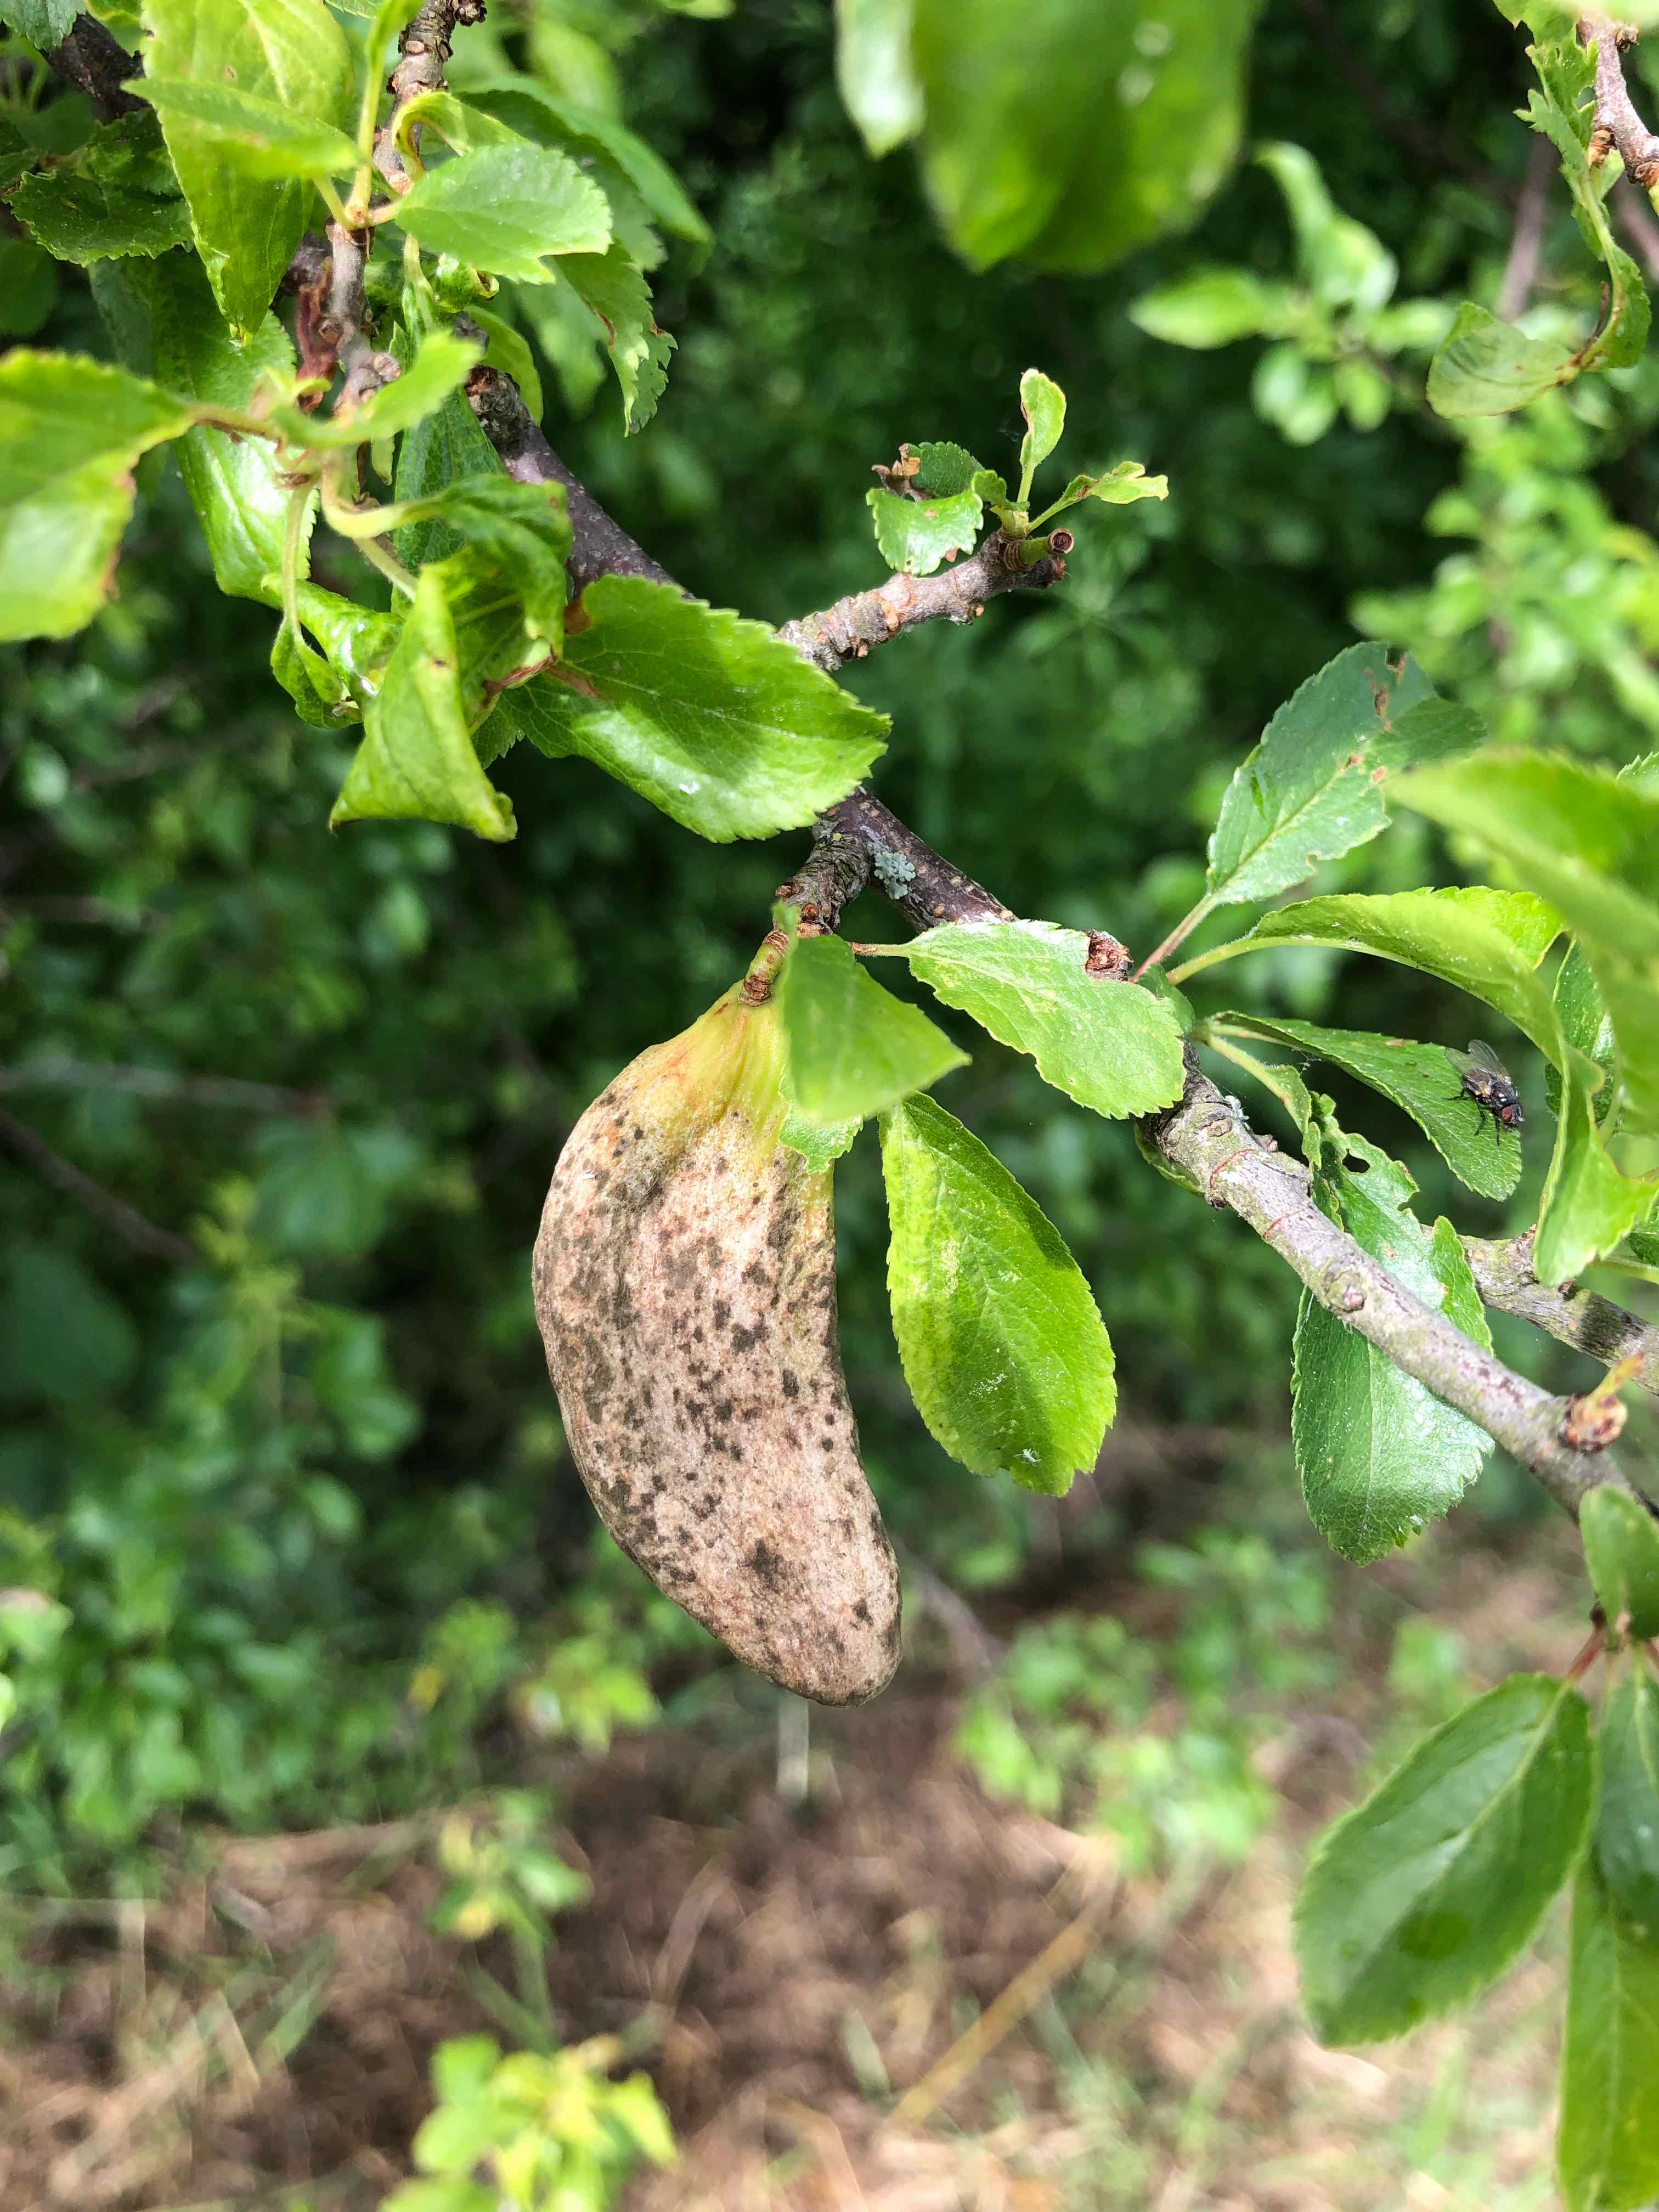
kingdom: Fungi
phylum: Ascomycota
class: Taphrinomycetes
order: Taphrinales
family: Taphrinaceae
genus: Taphrina
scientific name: Taphrina pruni
